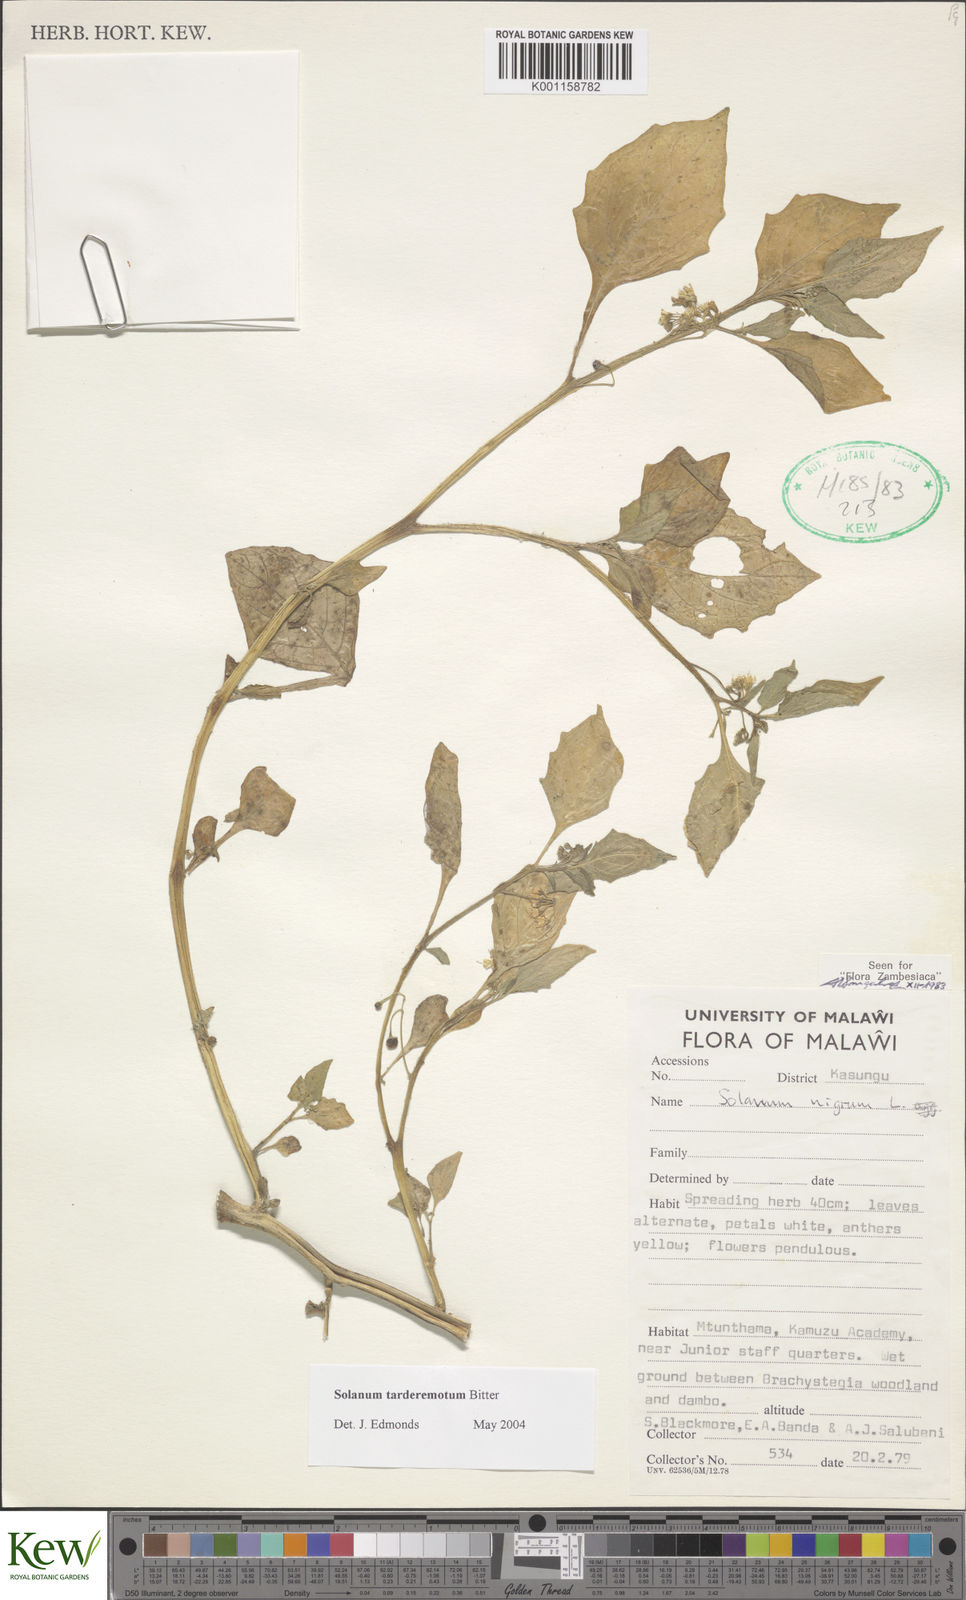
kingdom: Plantae
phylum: Tracheophyta
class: Magnoliopsida
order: Solanales
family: Solanaceae
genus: Solanum
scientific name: Solanum tarderemotum
